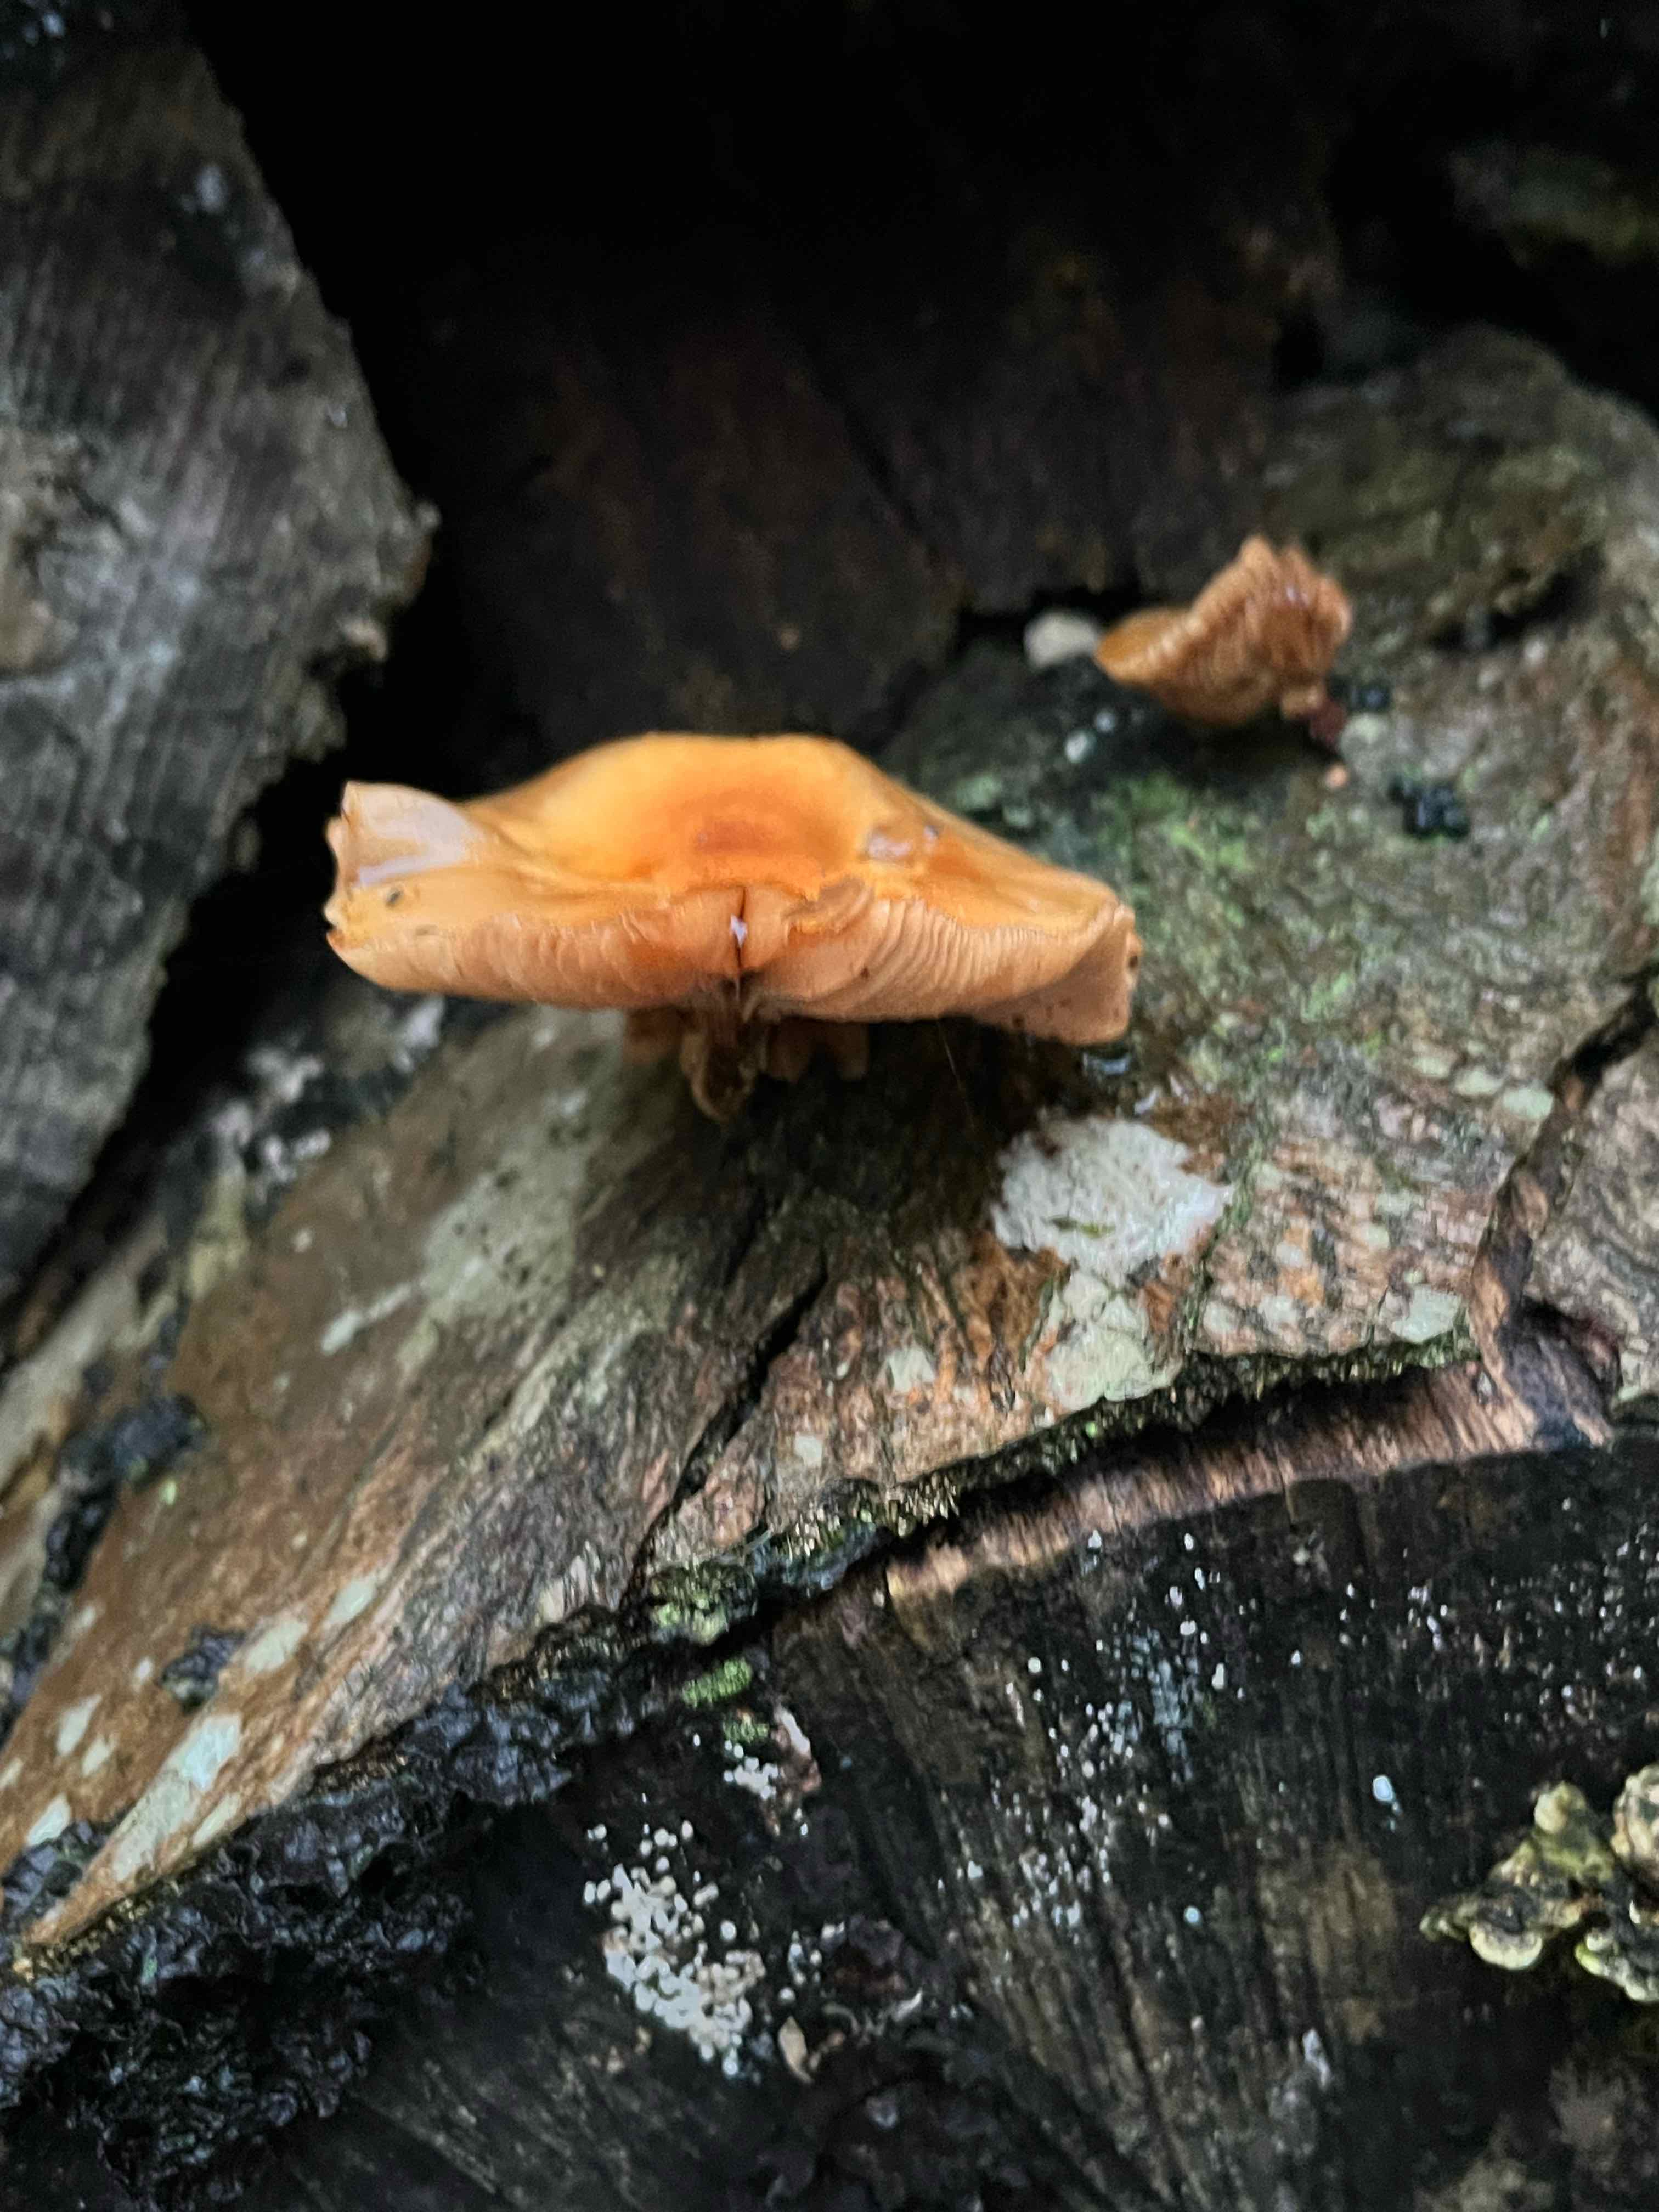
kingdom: Fungi
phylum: Basidiomycota
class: Agaricomycetes
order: Agaricales
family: Physalacriaceae
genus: Flammulina
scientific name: Flammulina velutipes
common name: gul fløjlsfod
